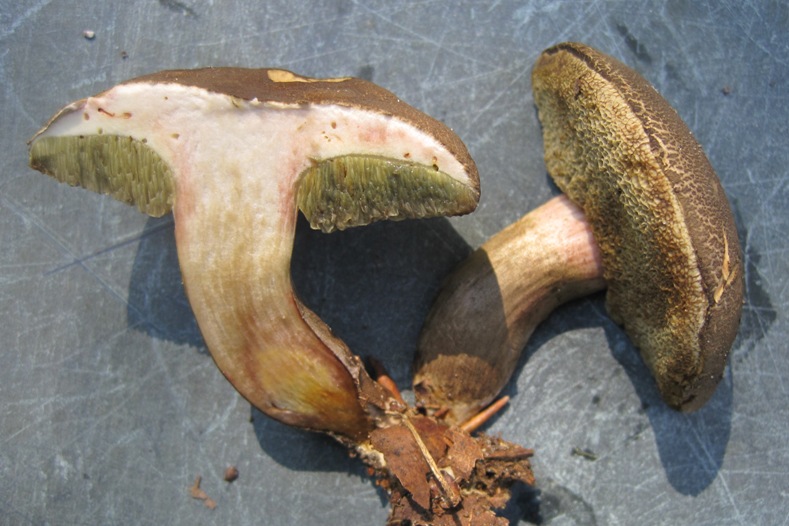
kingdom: Fungi
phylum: Basidiomycota
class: Agaricomycetes
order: Boletales
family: Boletaceae
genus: Xerocomellus
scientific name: Xerocomellus porosporus
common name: hvidsprukken rørhat
